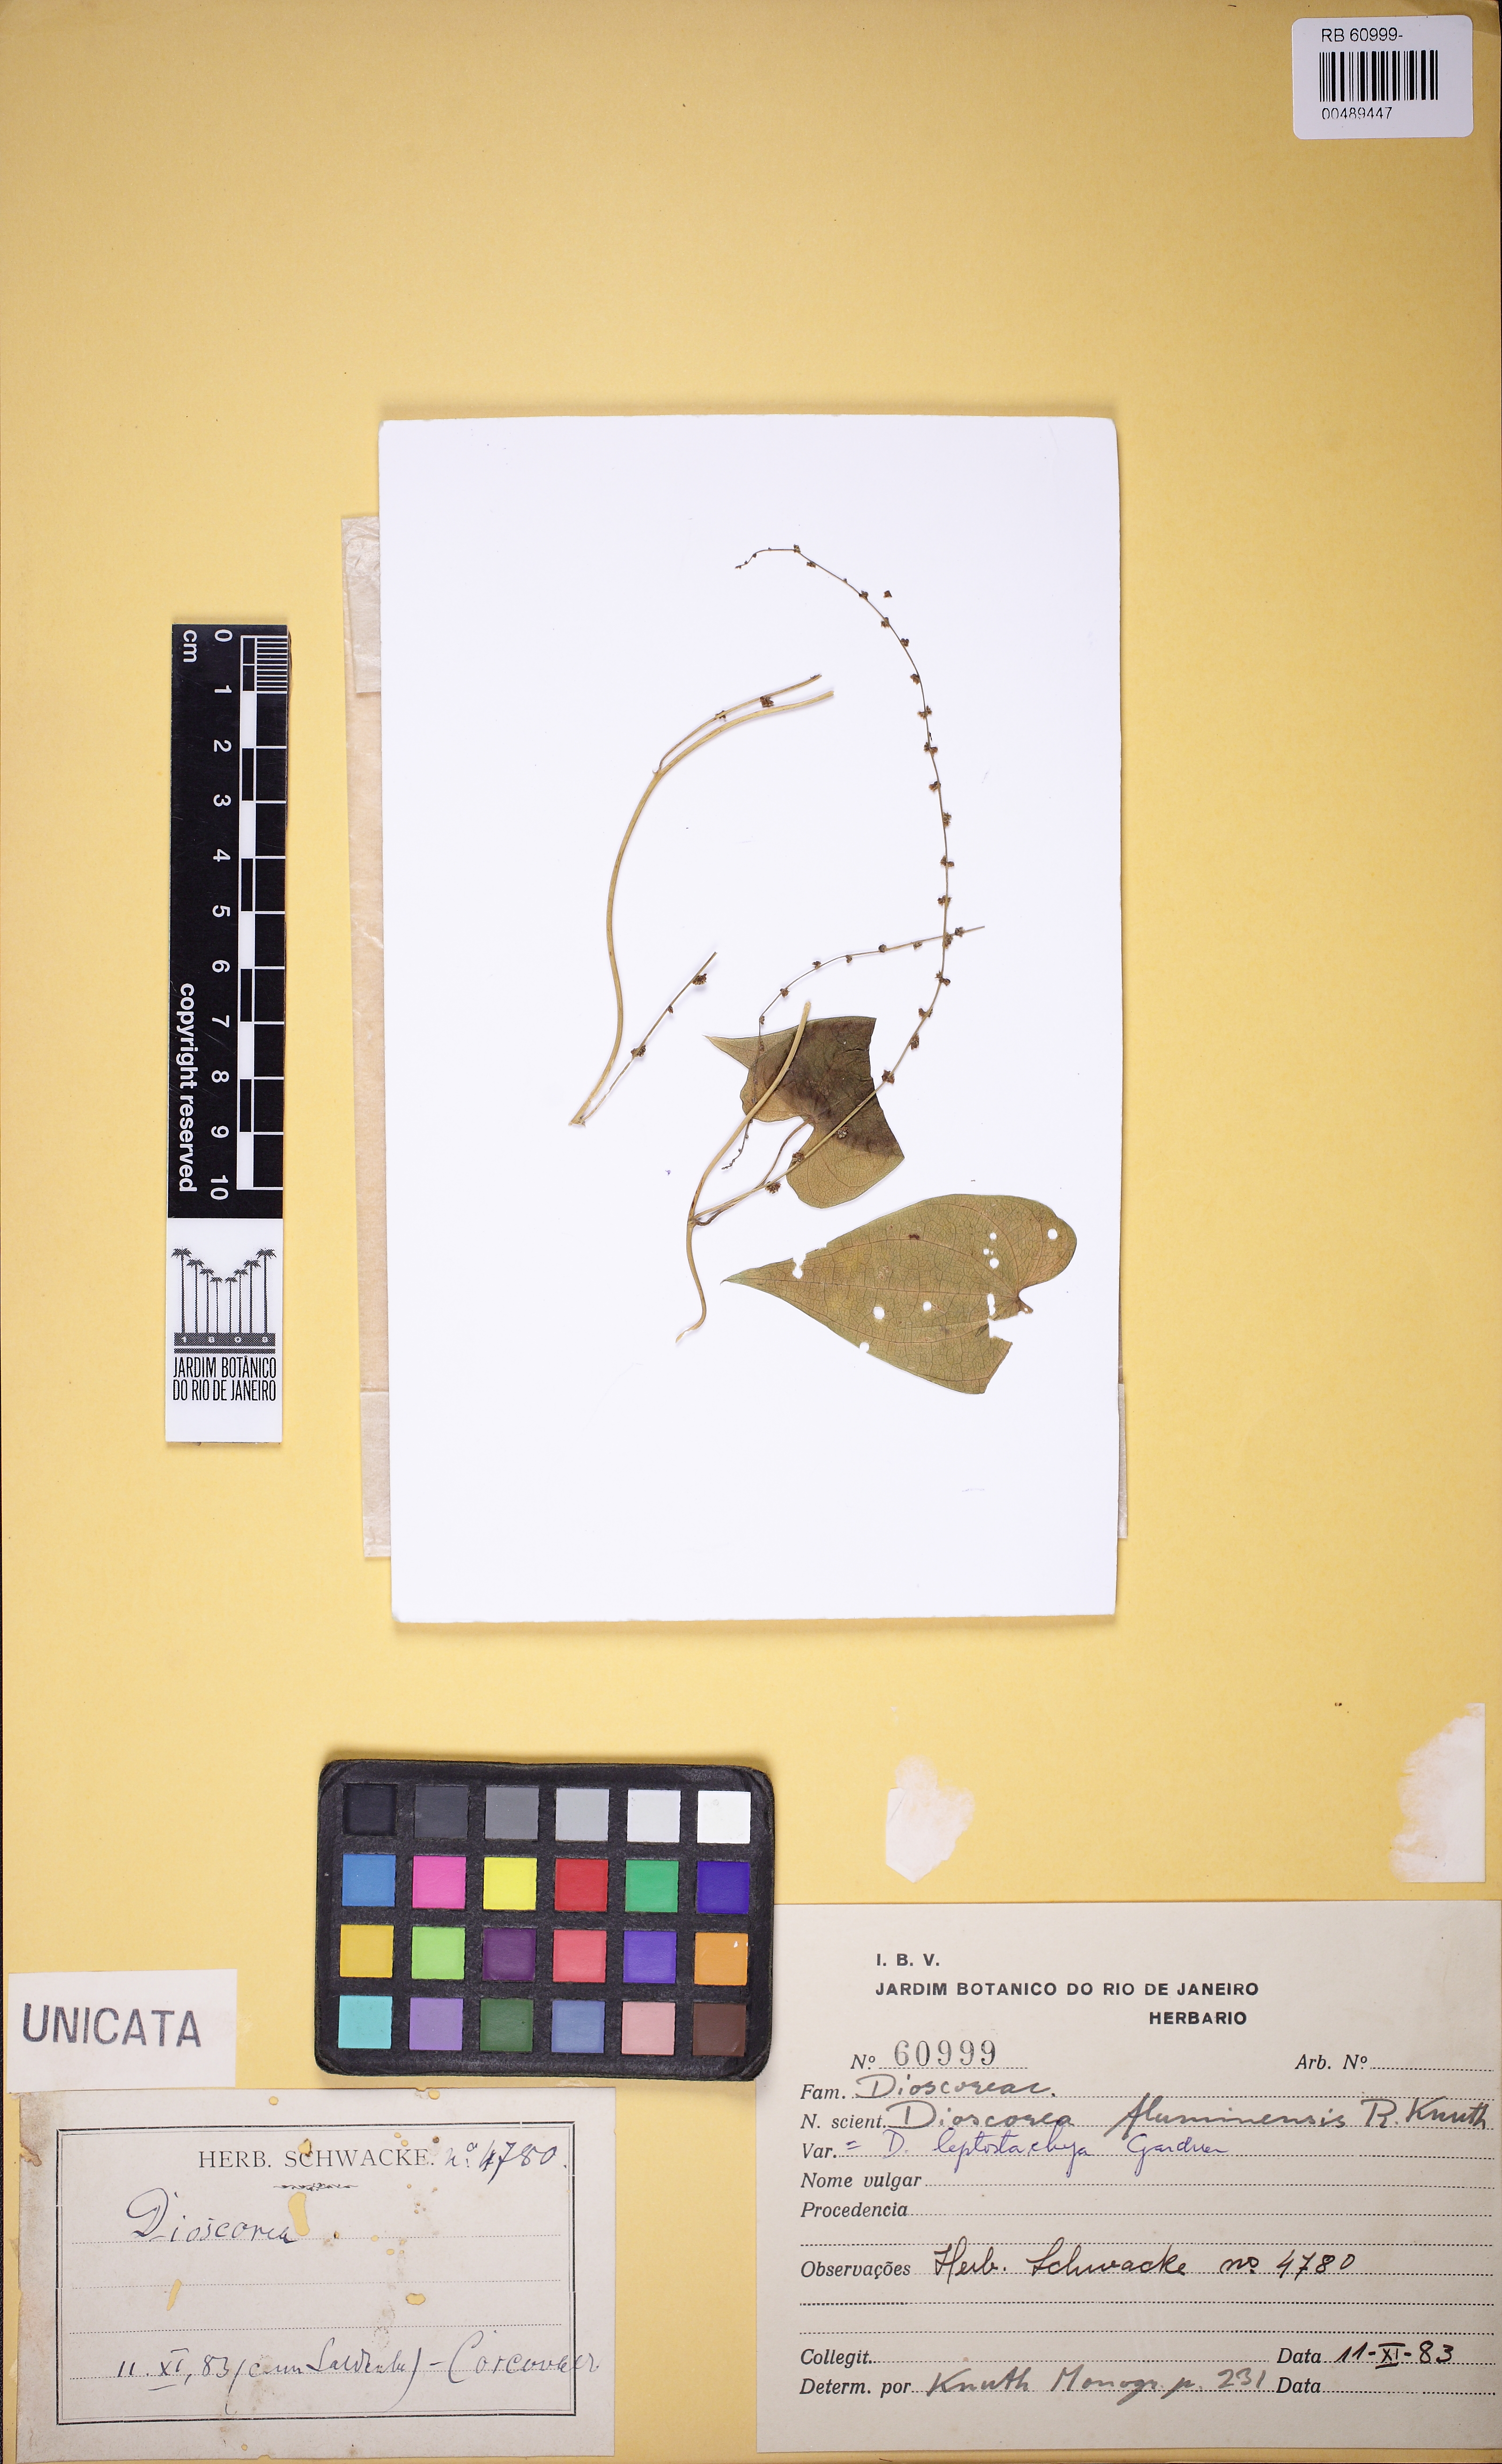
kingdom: Plantae
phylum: Tracheophyta
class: Liliopsida
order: Dioscoreales
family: Dioscoreaceae
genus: Dioscorea
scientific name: Dioscorea martiana
